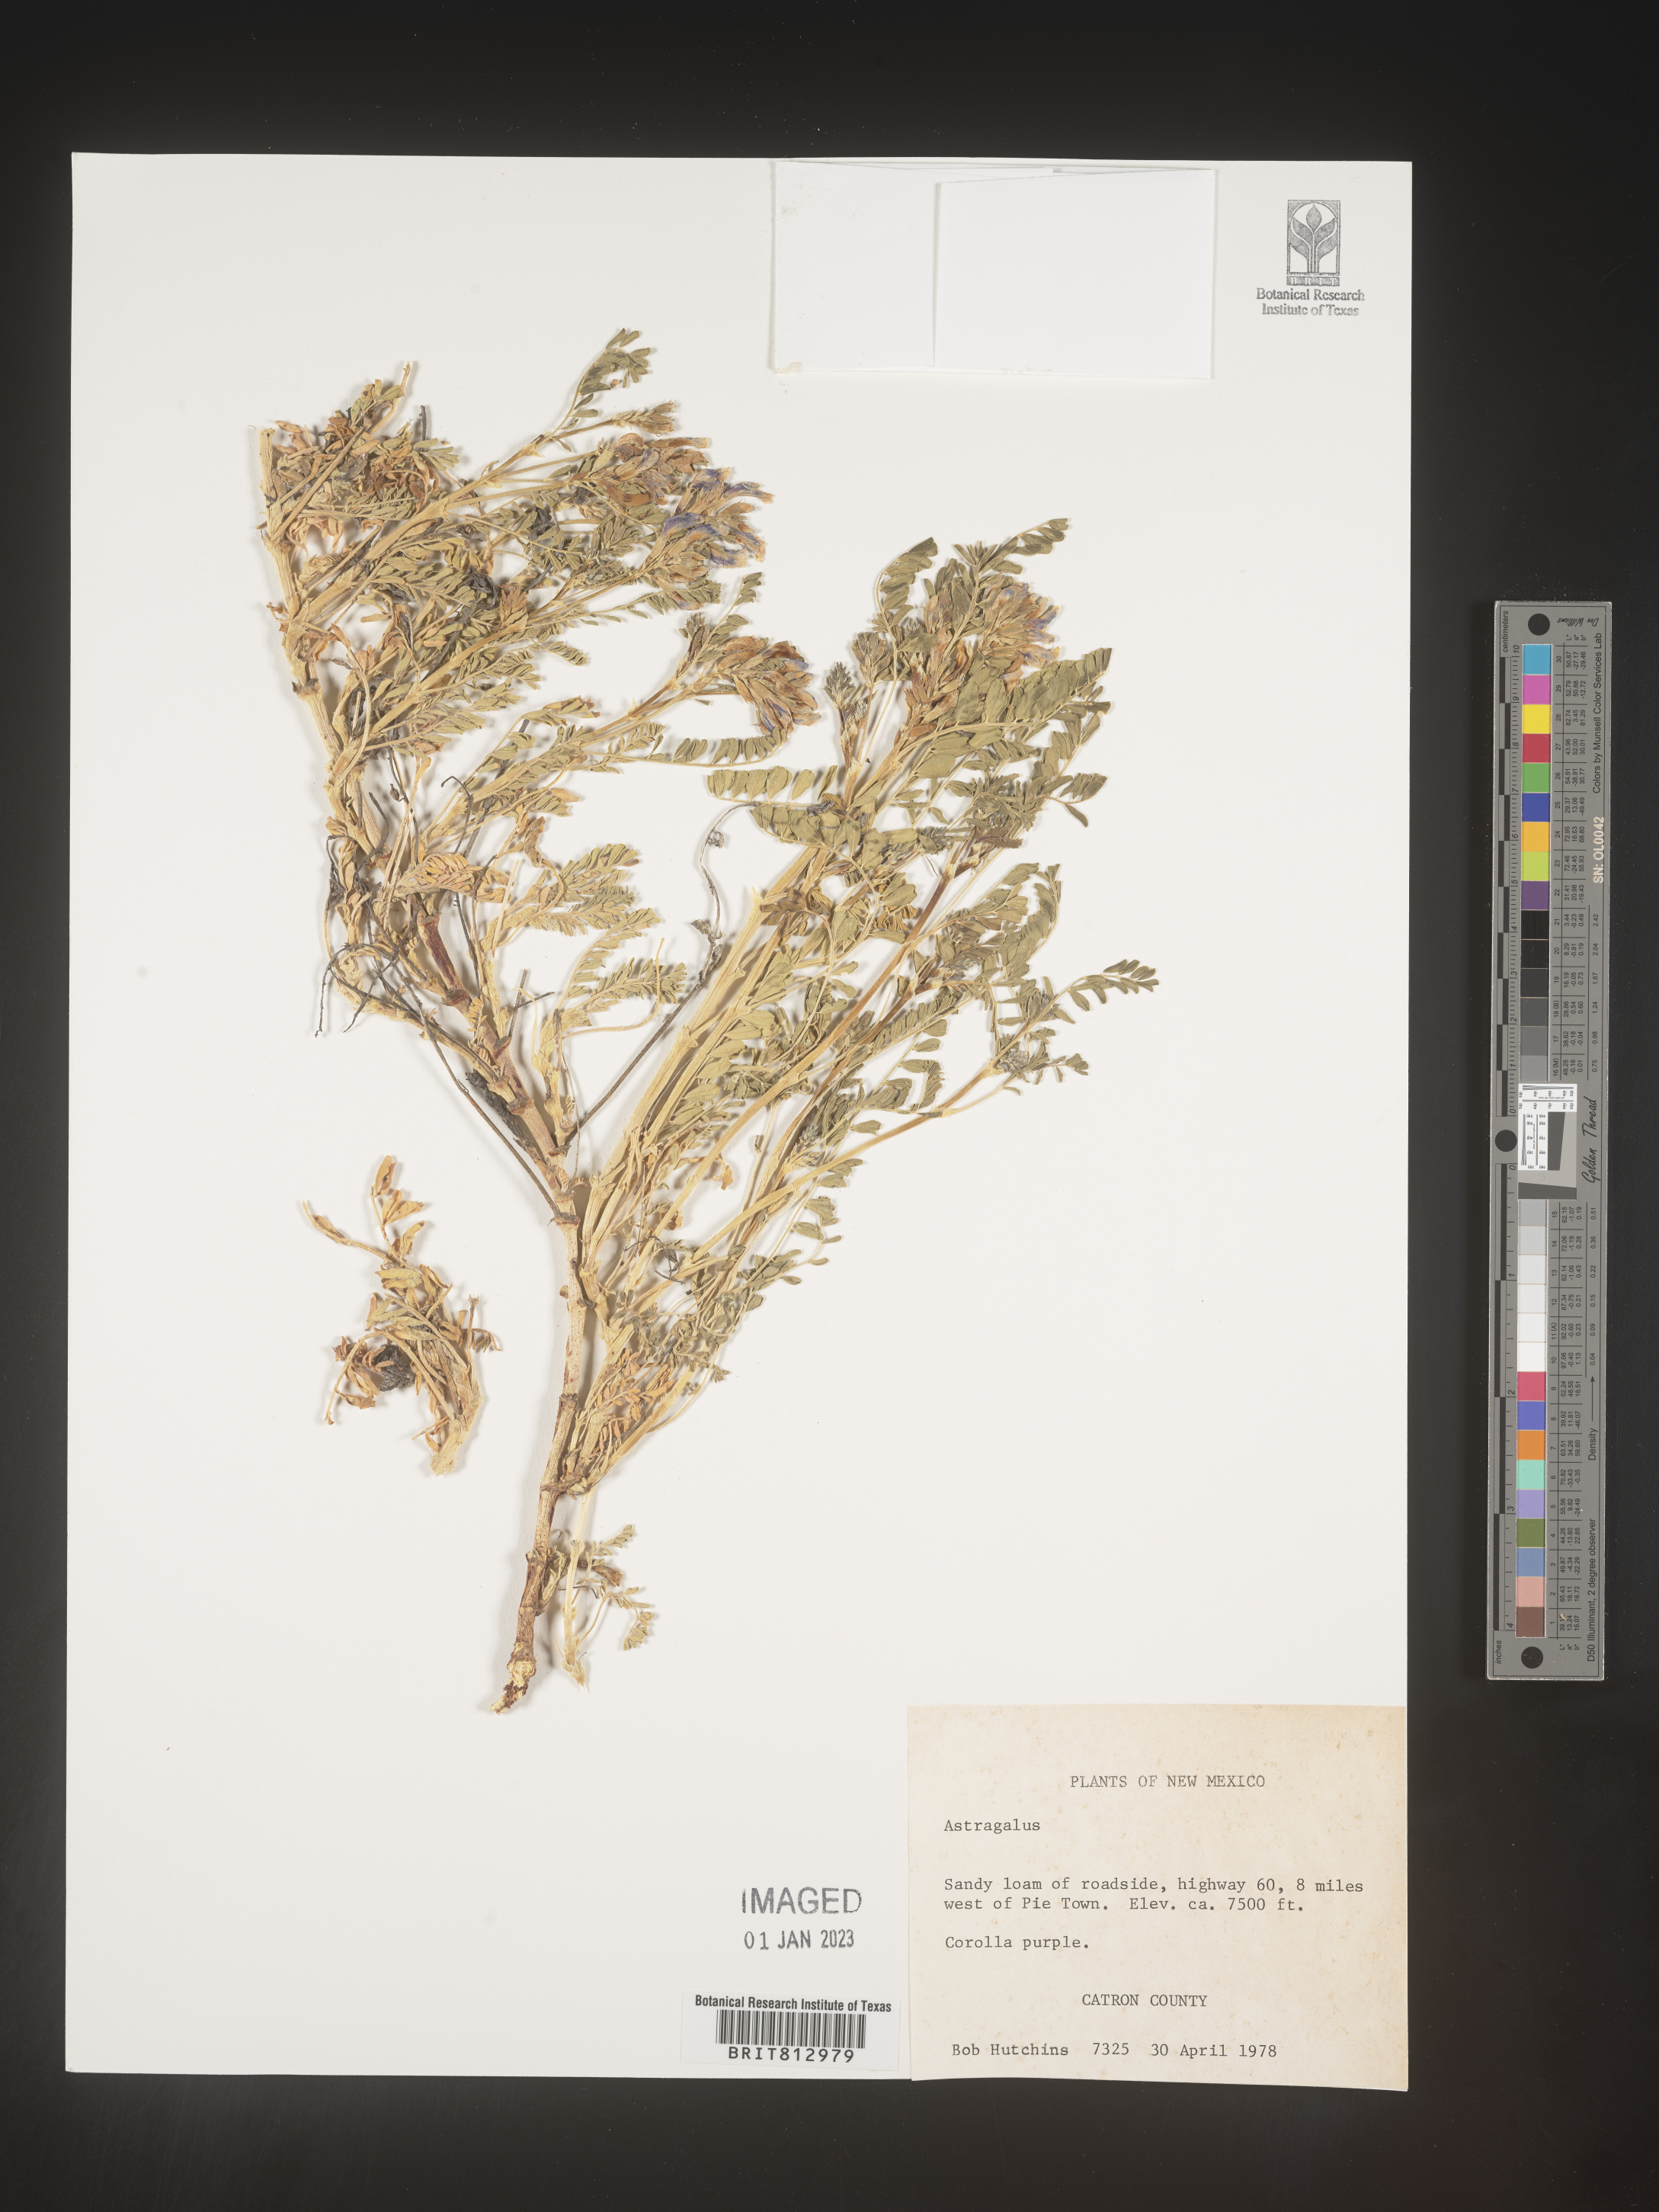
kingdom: Plantae
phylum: Tracheophyta
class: Magnoliopsida
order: Fabales
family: Fabaceae
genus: Astragalus
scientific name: Astragalus
